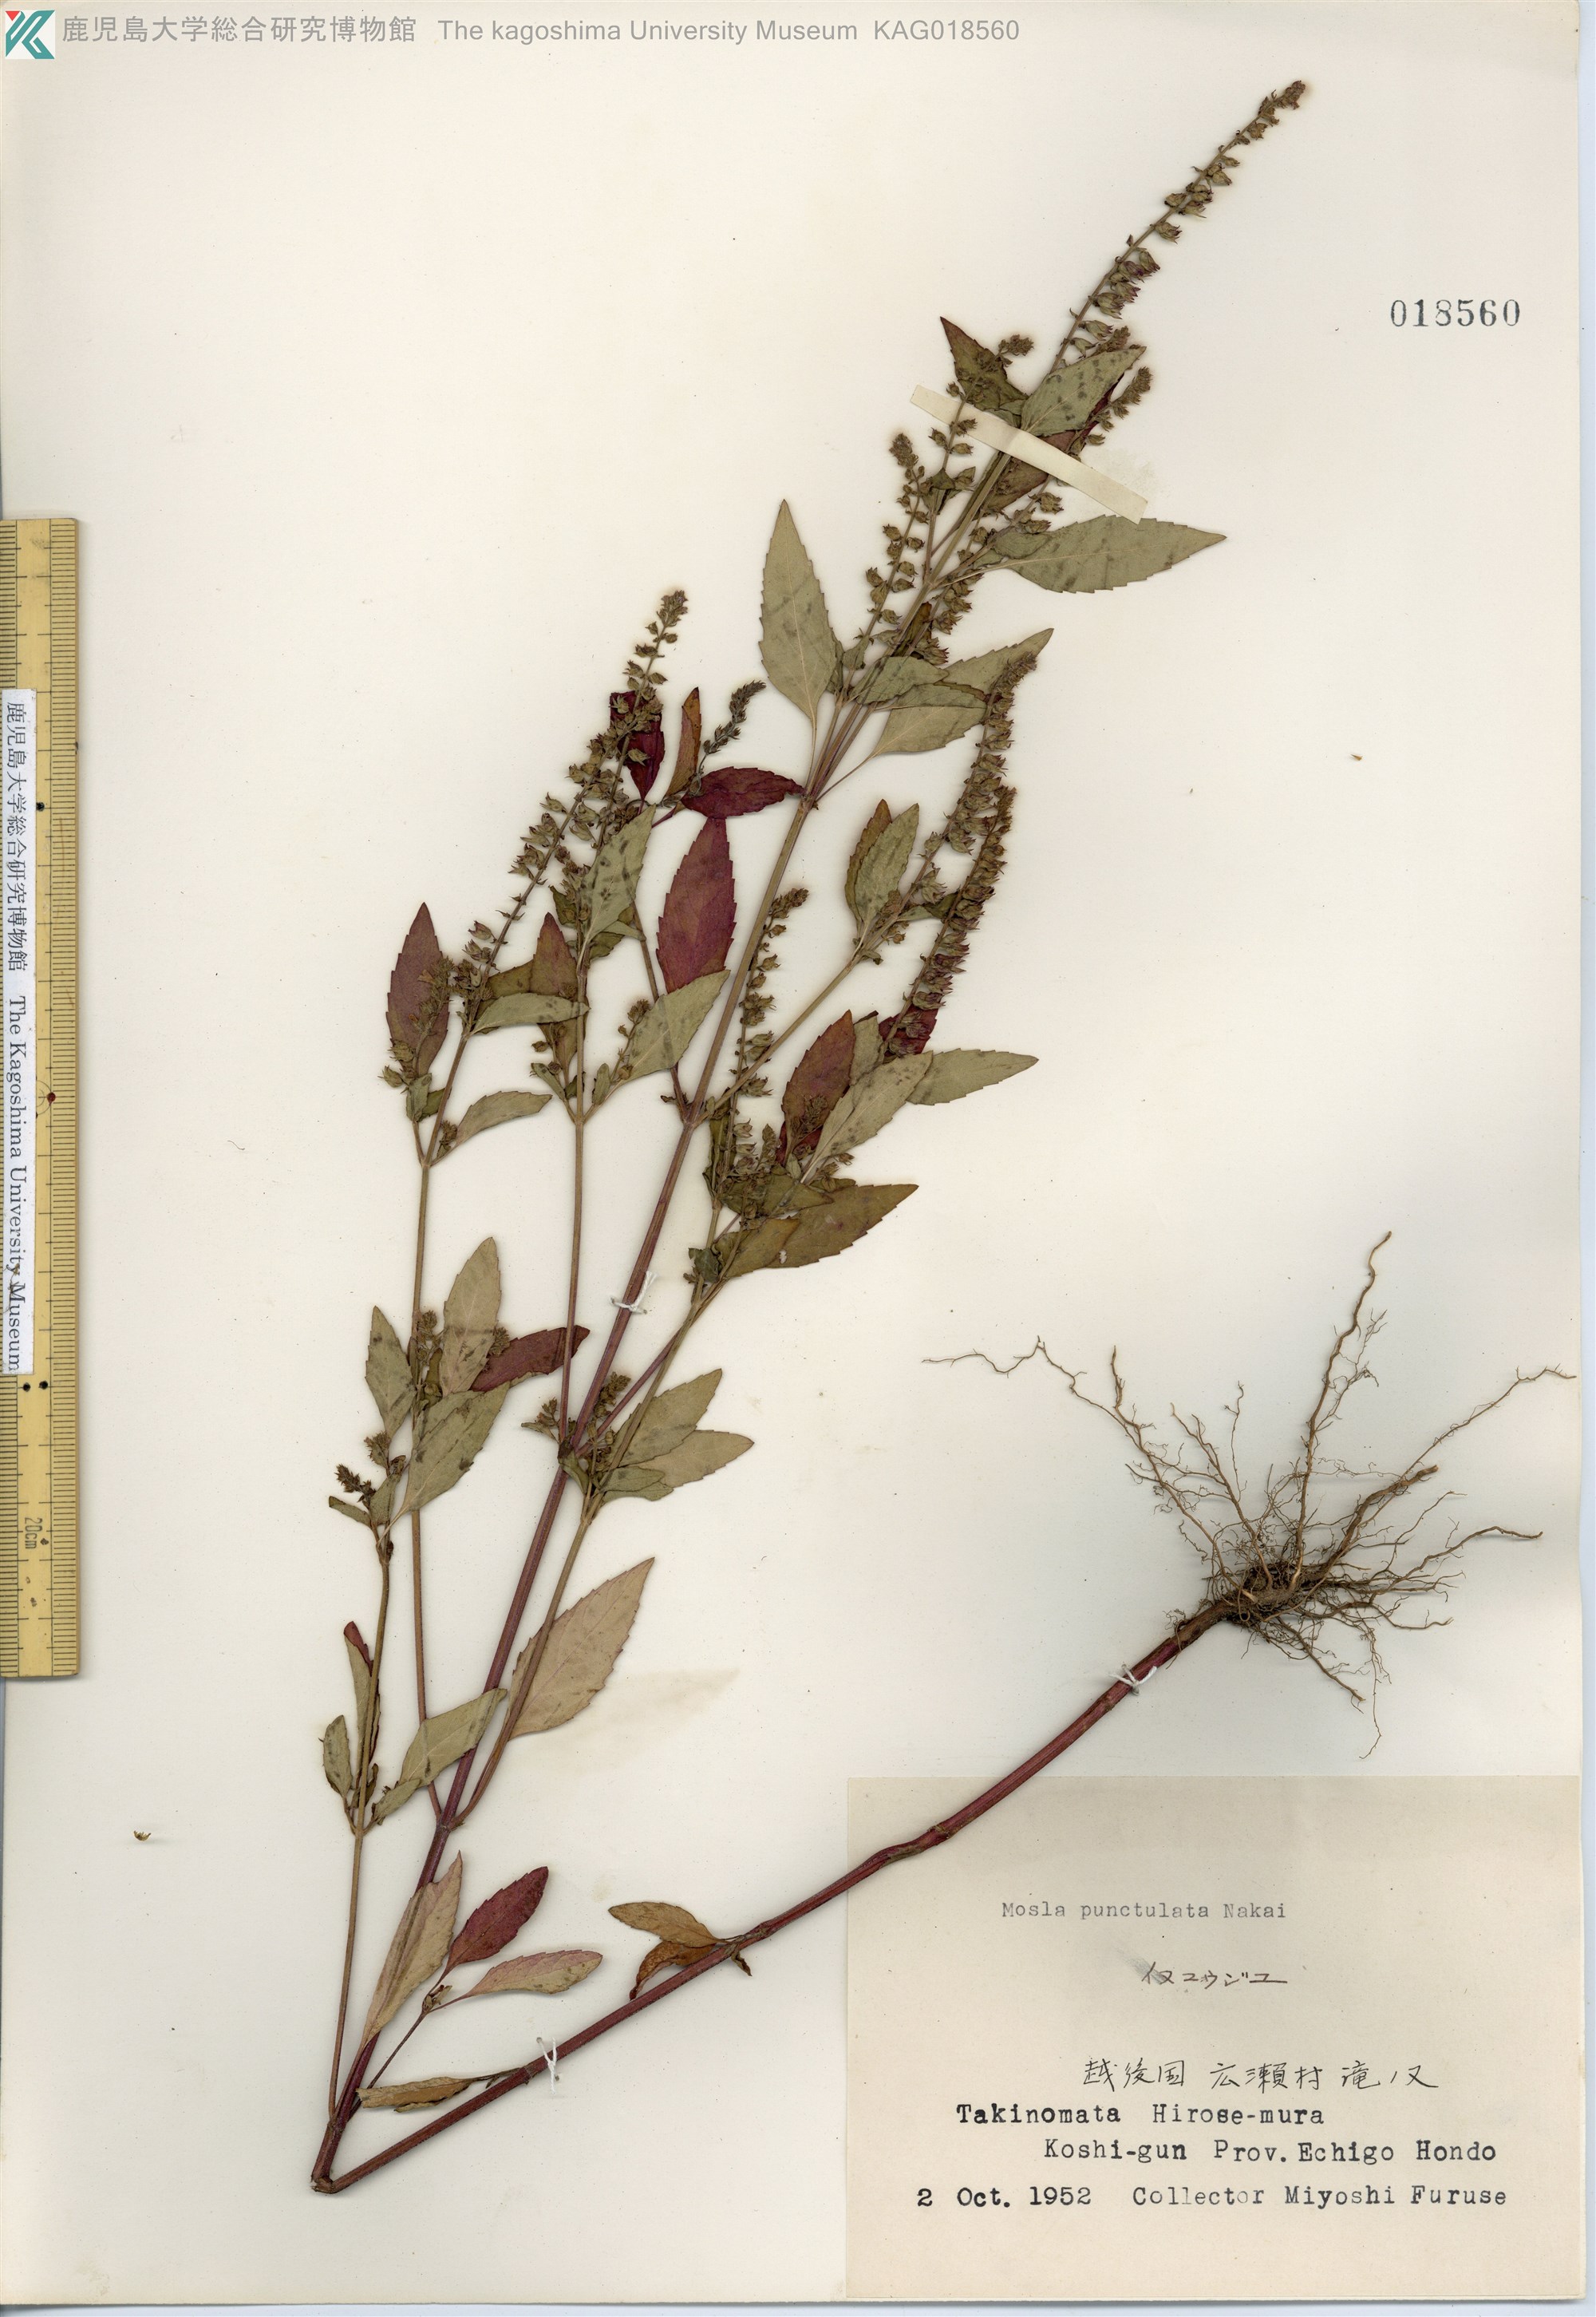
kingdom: Plantae
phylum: Tracheophyta
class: Magnoliopsida
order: Lamiales
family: Lamiaceae
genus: Mosla
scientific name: Mosla scabra
